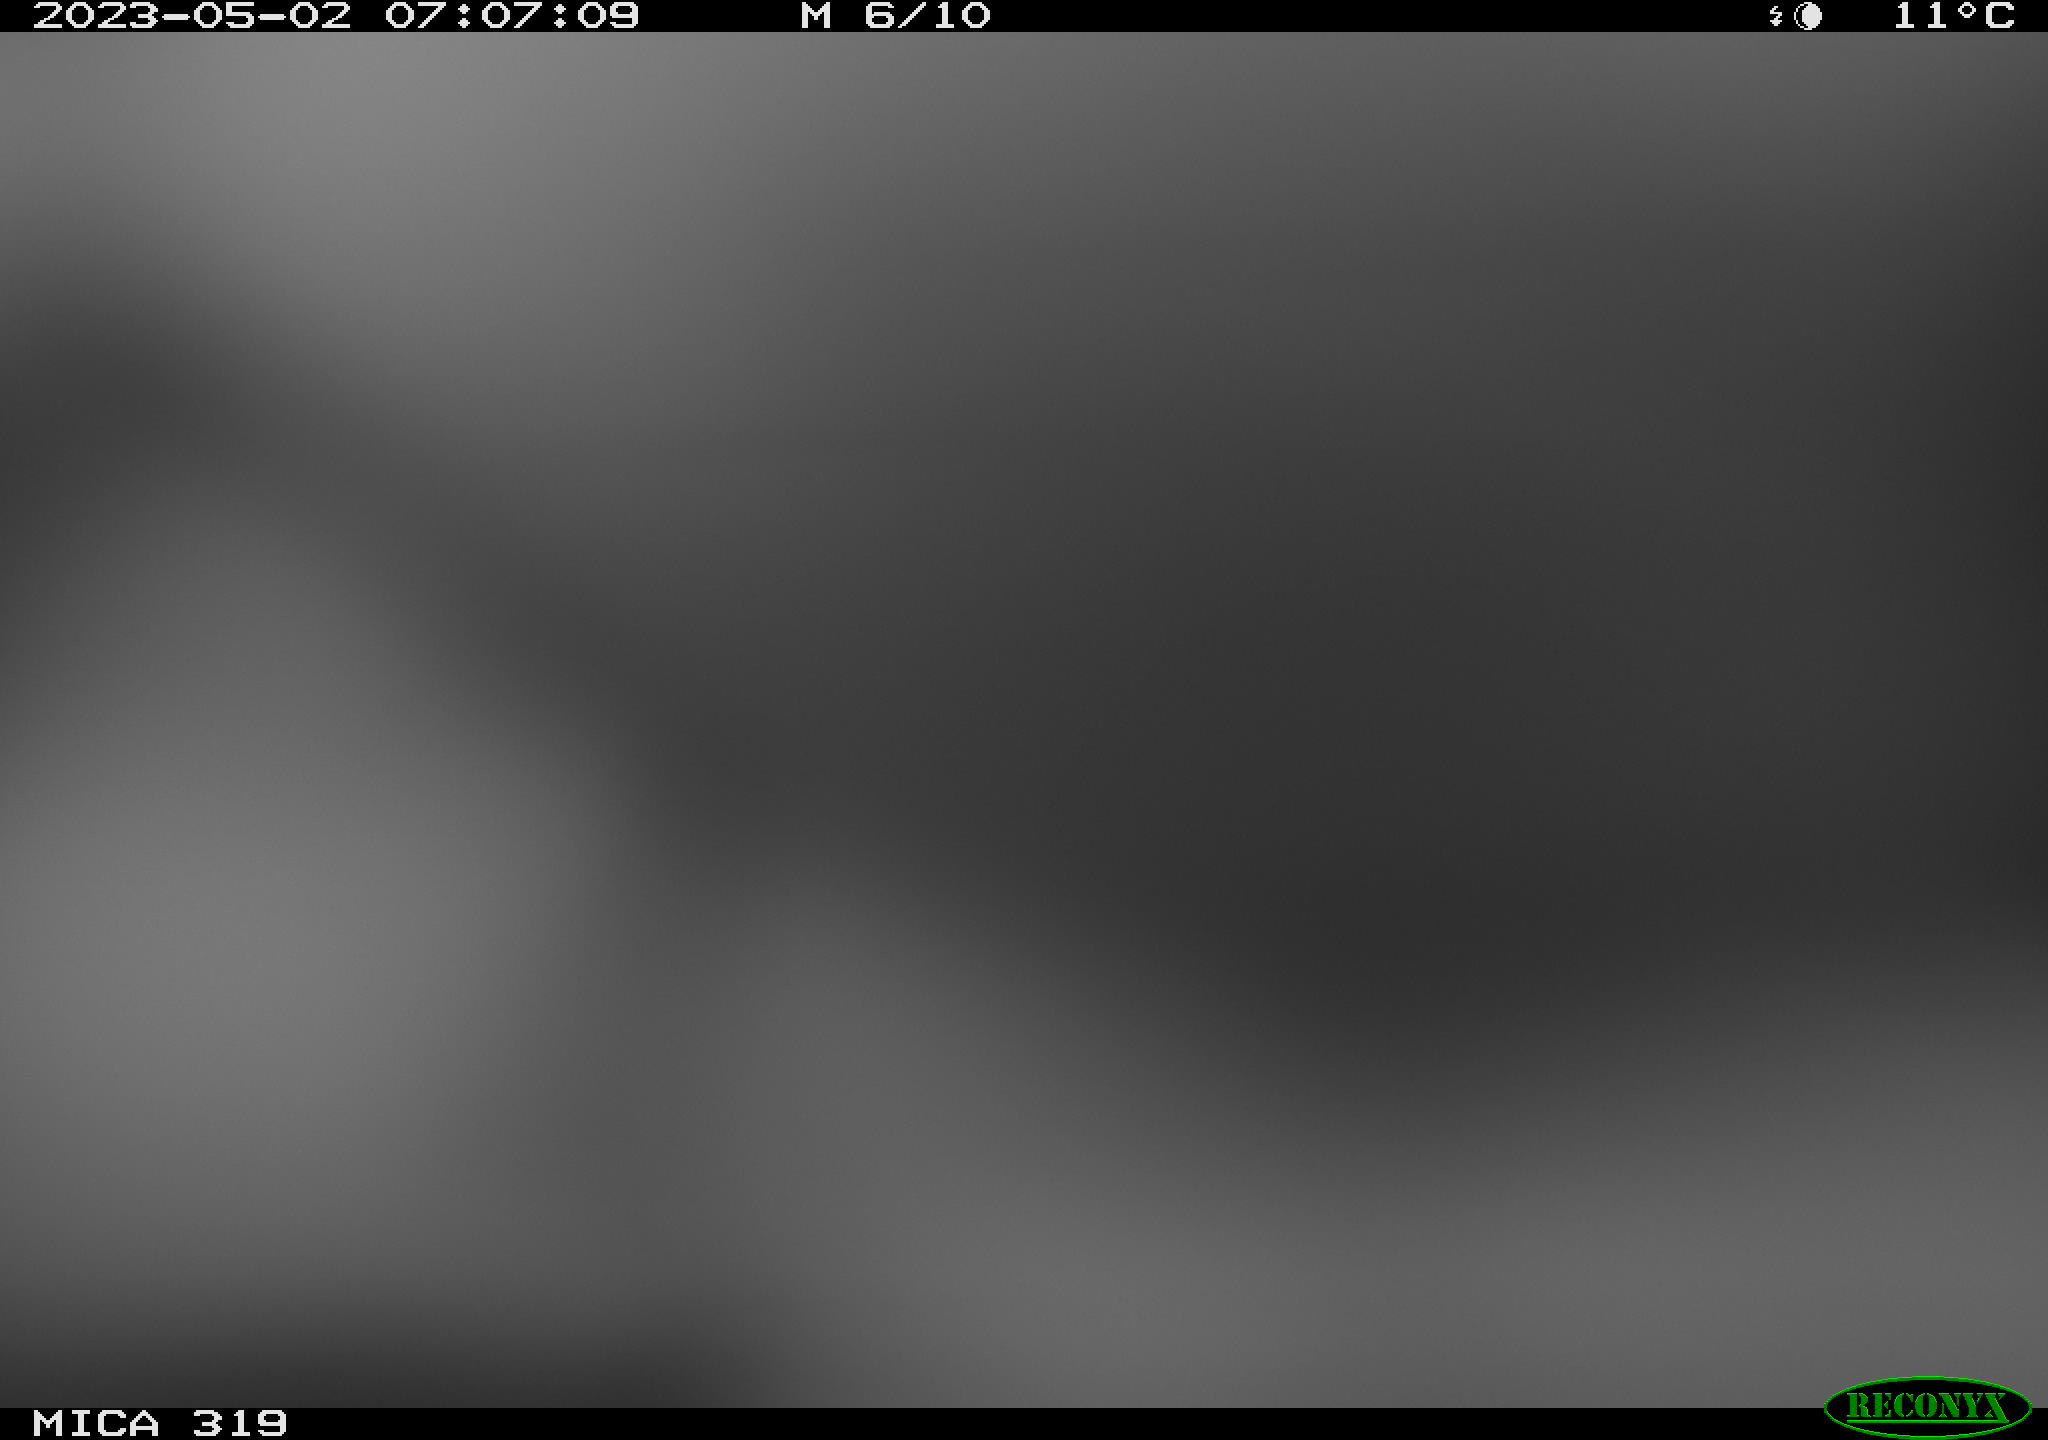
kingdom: Animalia
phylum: Chordata
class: Mammalia
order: Rodentia
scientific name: Rodentia
